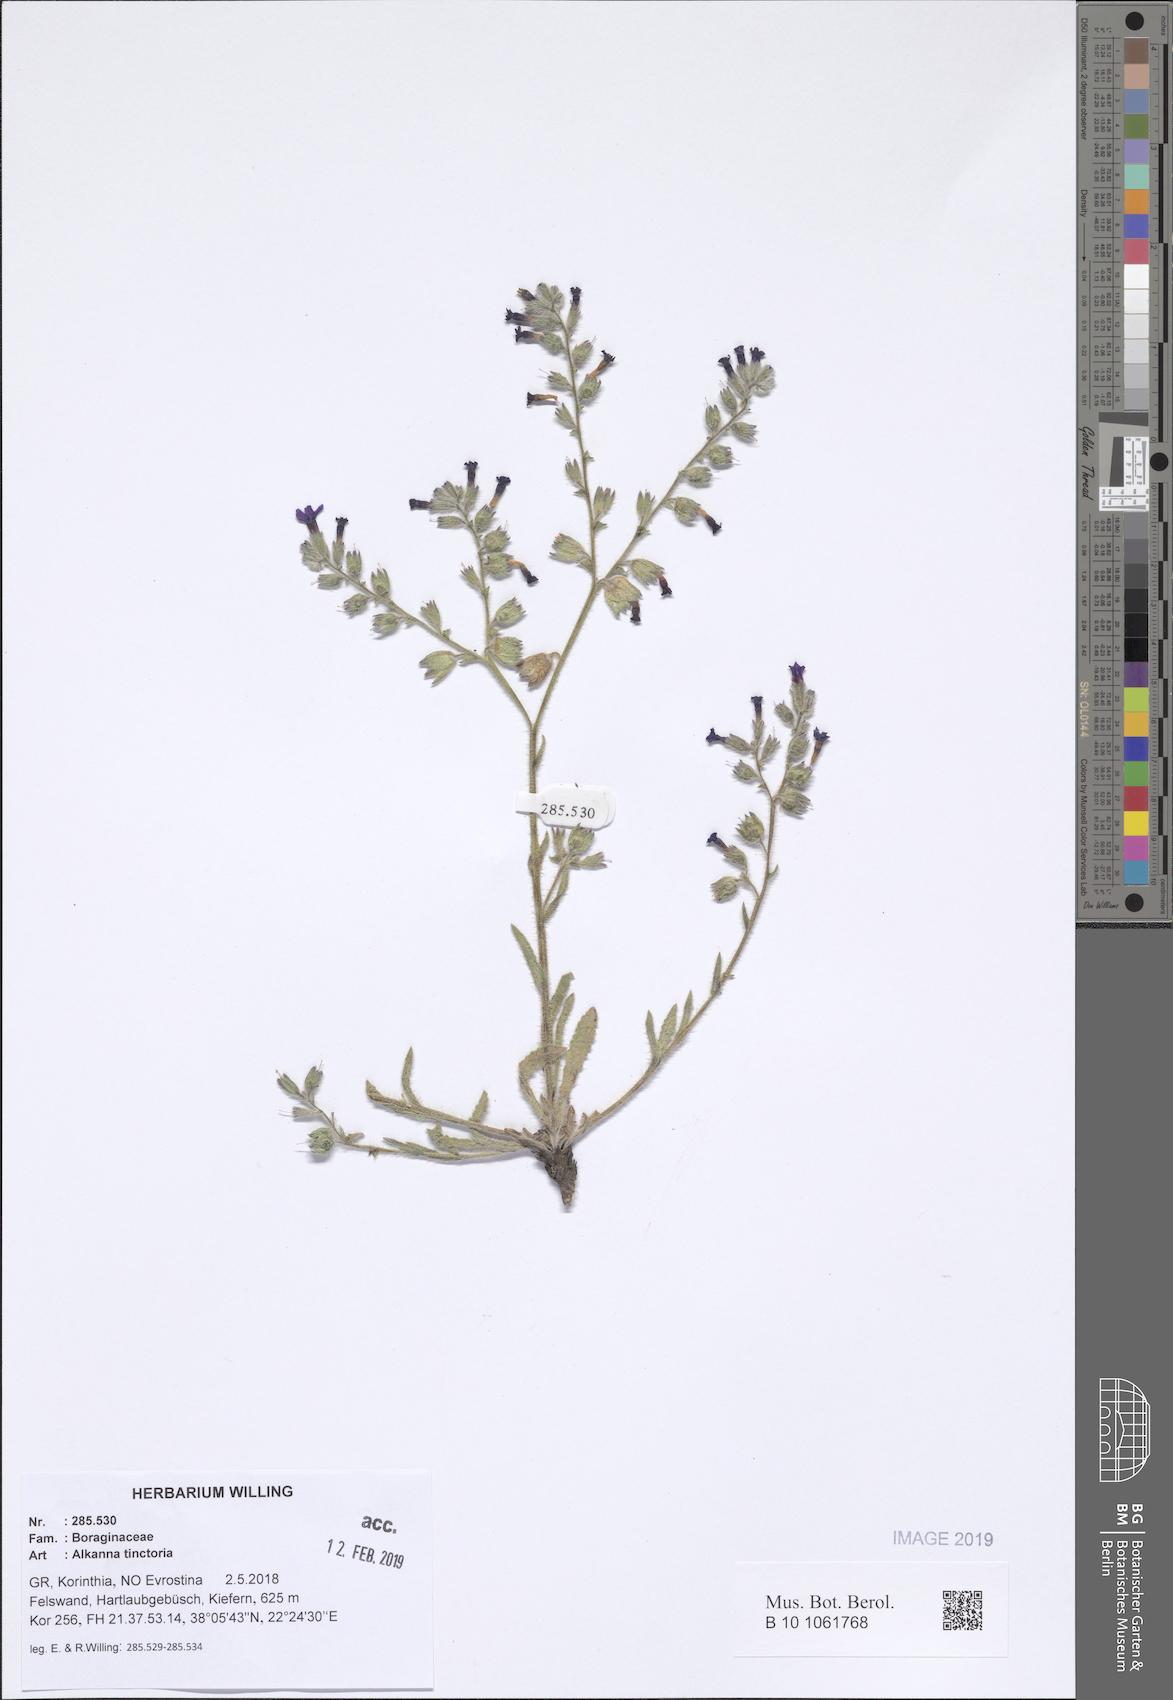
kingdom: Plantae
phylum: Tracheophyta
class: Magnoliopsida
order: Boraginales
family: Boraginaceae
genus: Alkanna
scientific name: Alkanna tinctoria
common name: Dyer's-alkanet
